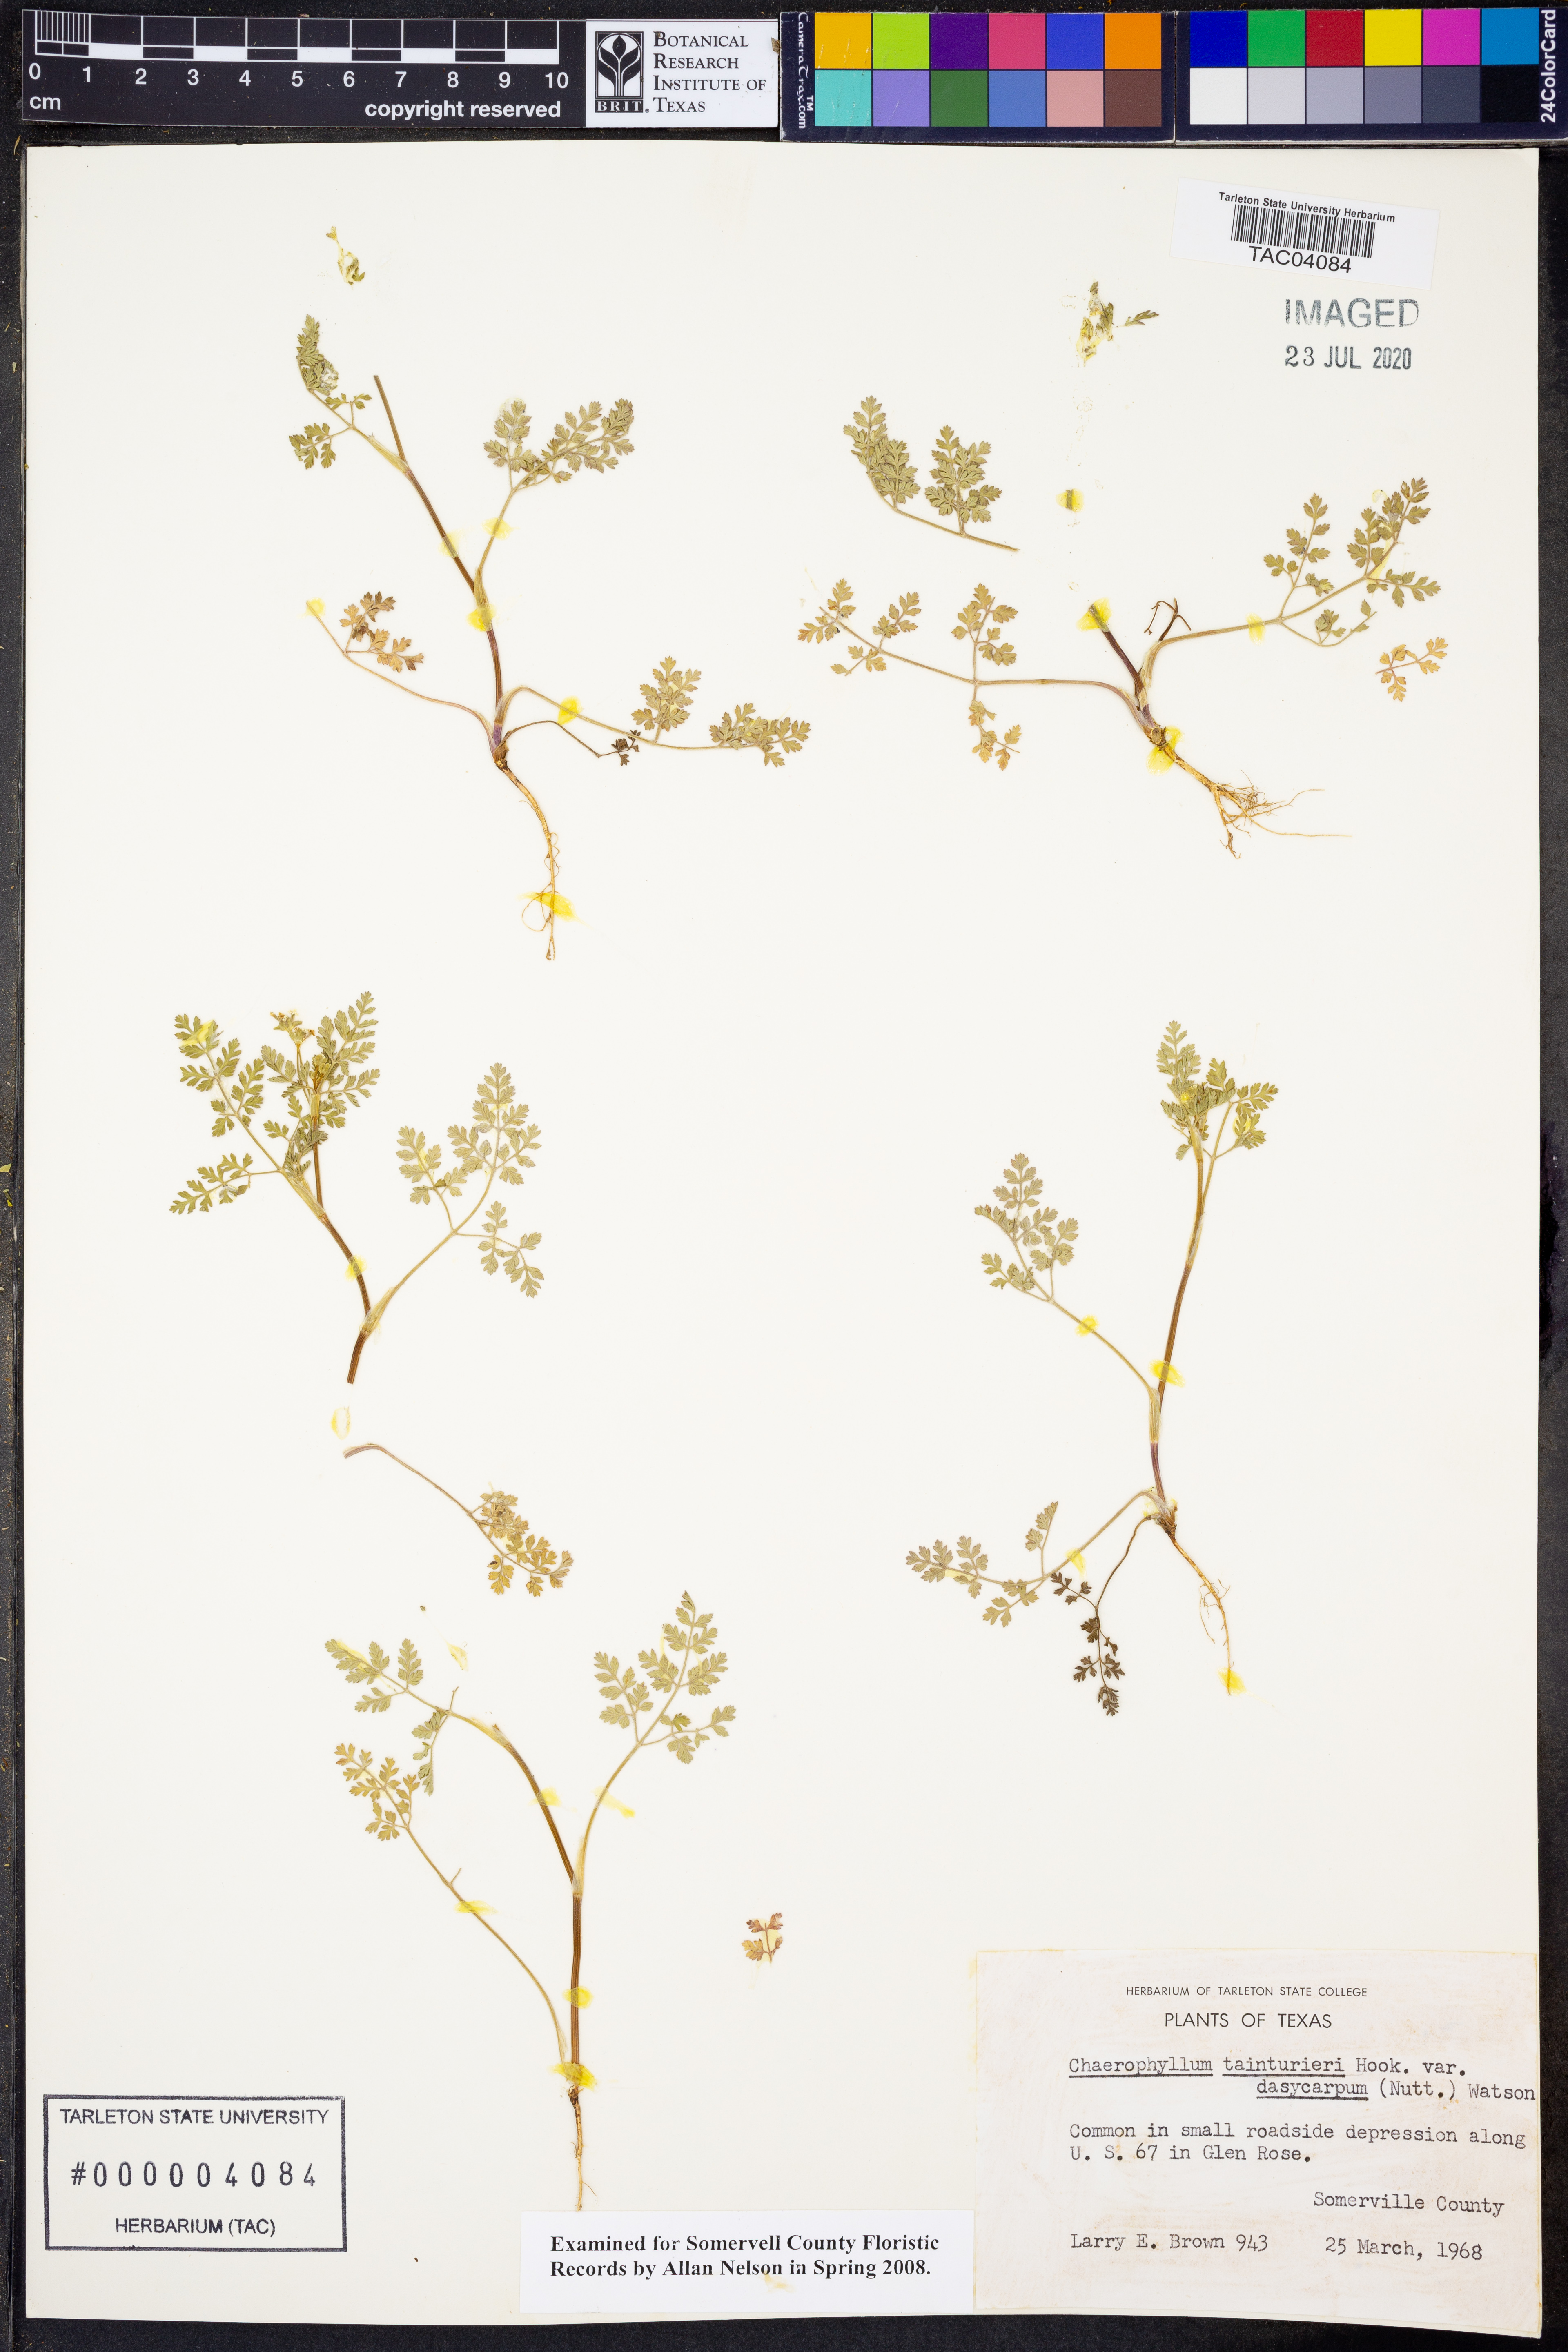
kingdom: Plantae
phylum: Tracheophyta
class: Magnoliopsida
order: Apiales
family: Apiaceae
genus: Chaerophyllum
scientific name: Chaerophyllum dasycarpum
